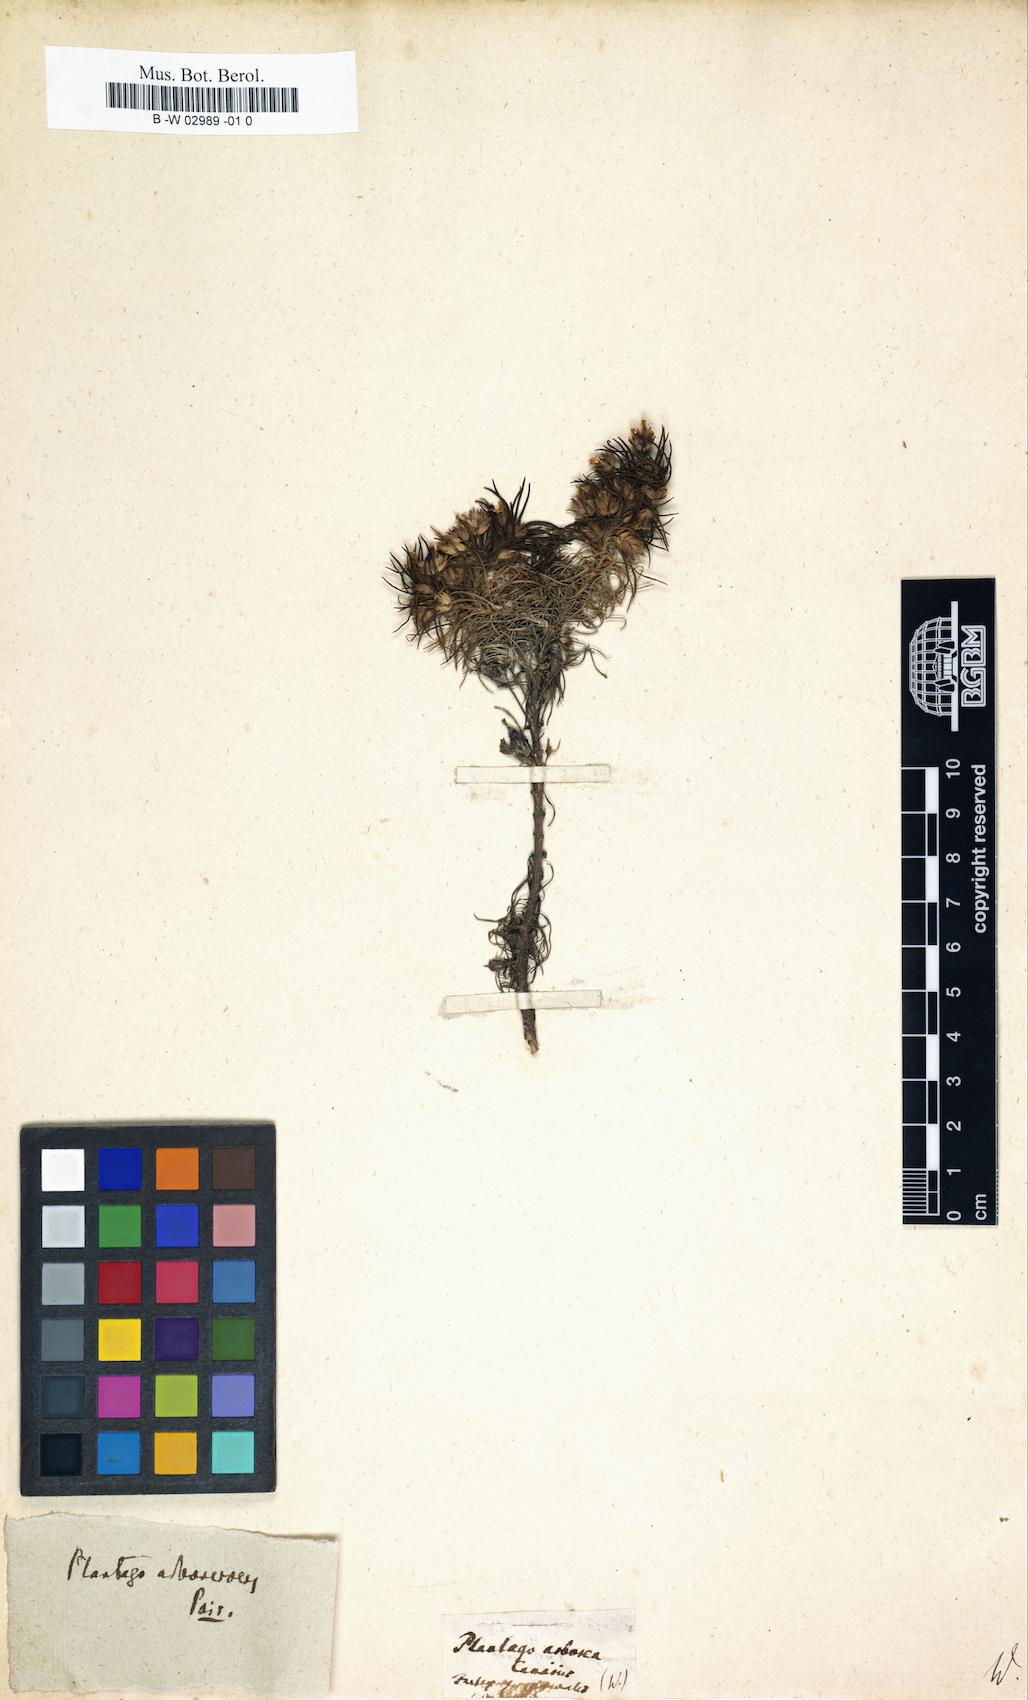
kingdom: Plantae
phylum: Tracheophyta
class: Magnoliopsida
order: Lamiales
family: Plantaginaceae
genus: Plantago
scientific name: Plantago
